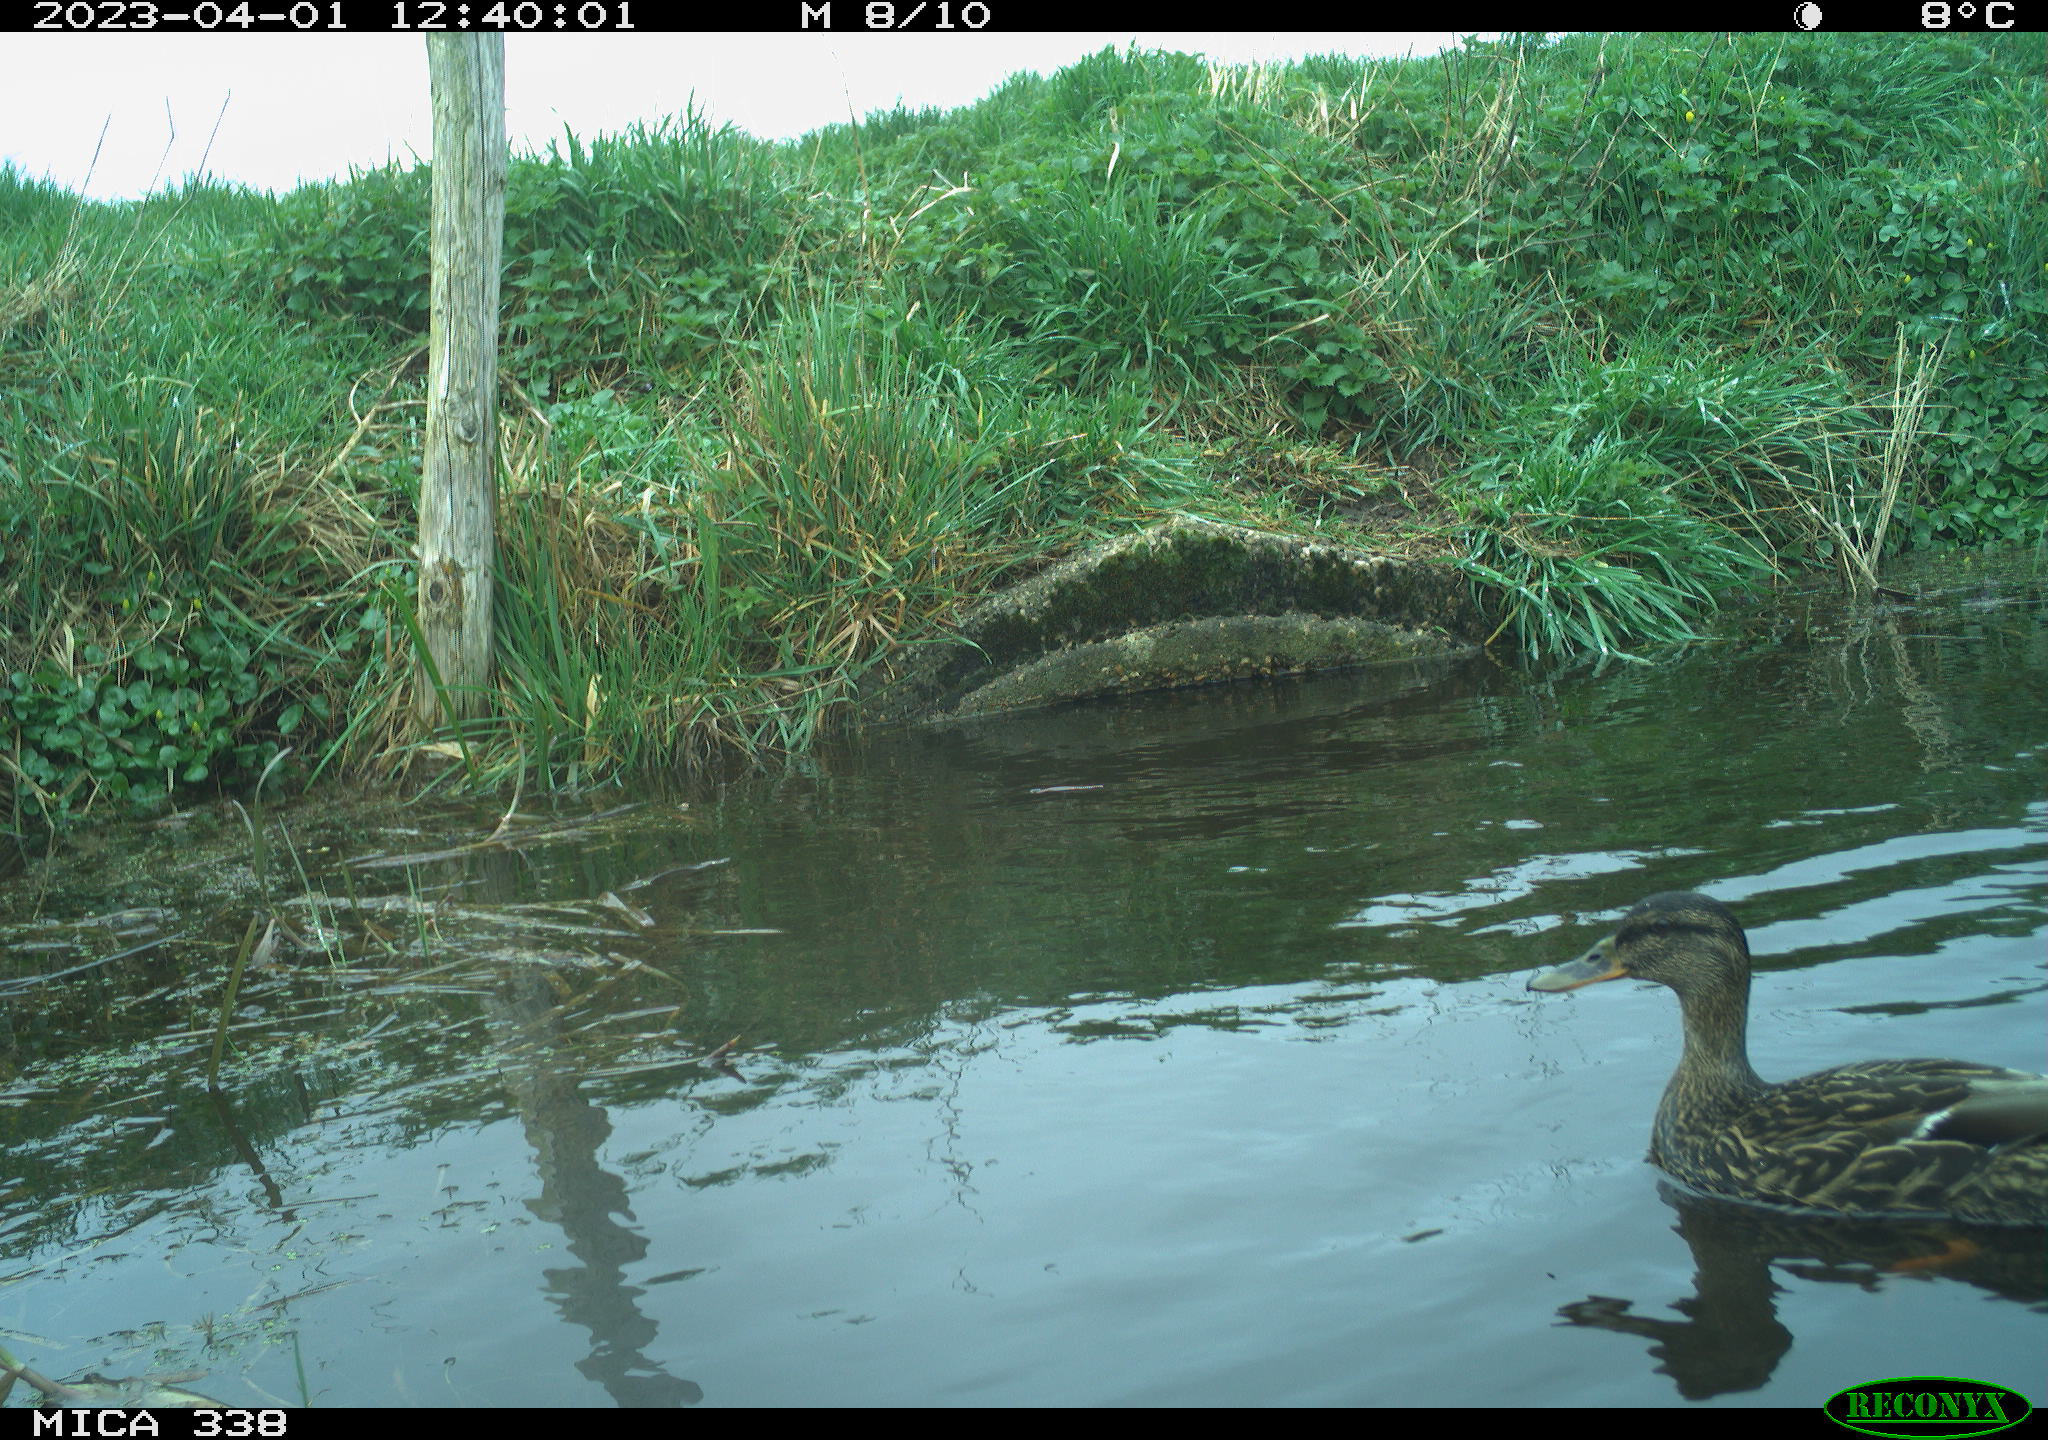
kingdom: Animalia
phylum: Chordata
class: Aves
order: Anseriformes
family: Anatidae
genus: Anas
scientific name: Anas platyrhynchos
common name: Mallard
